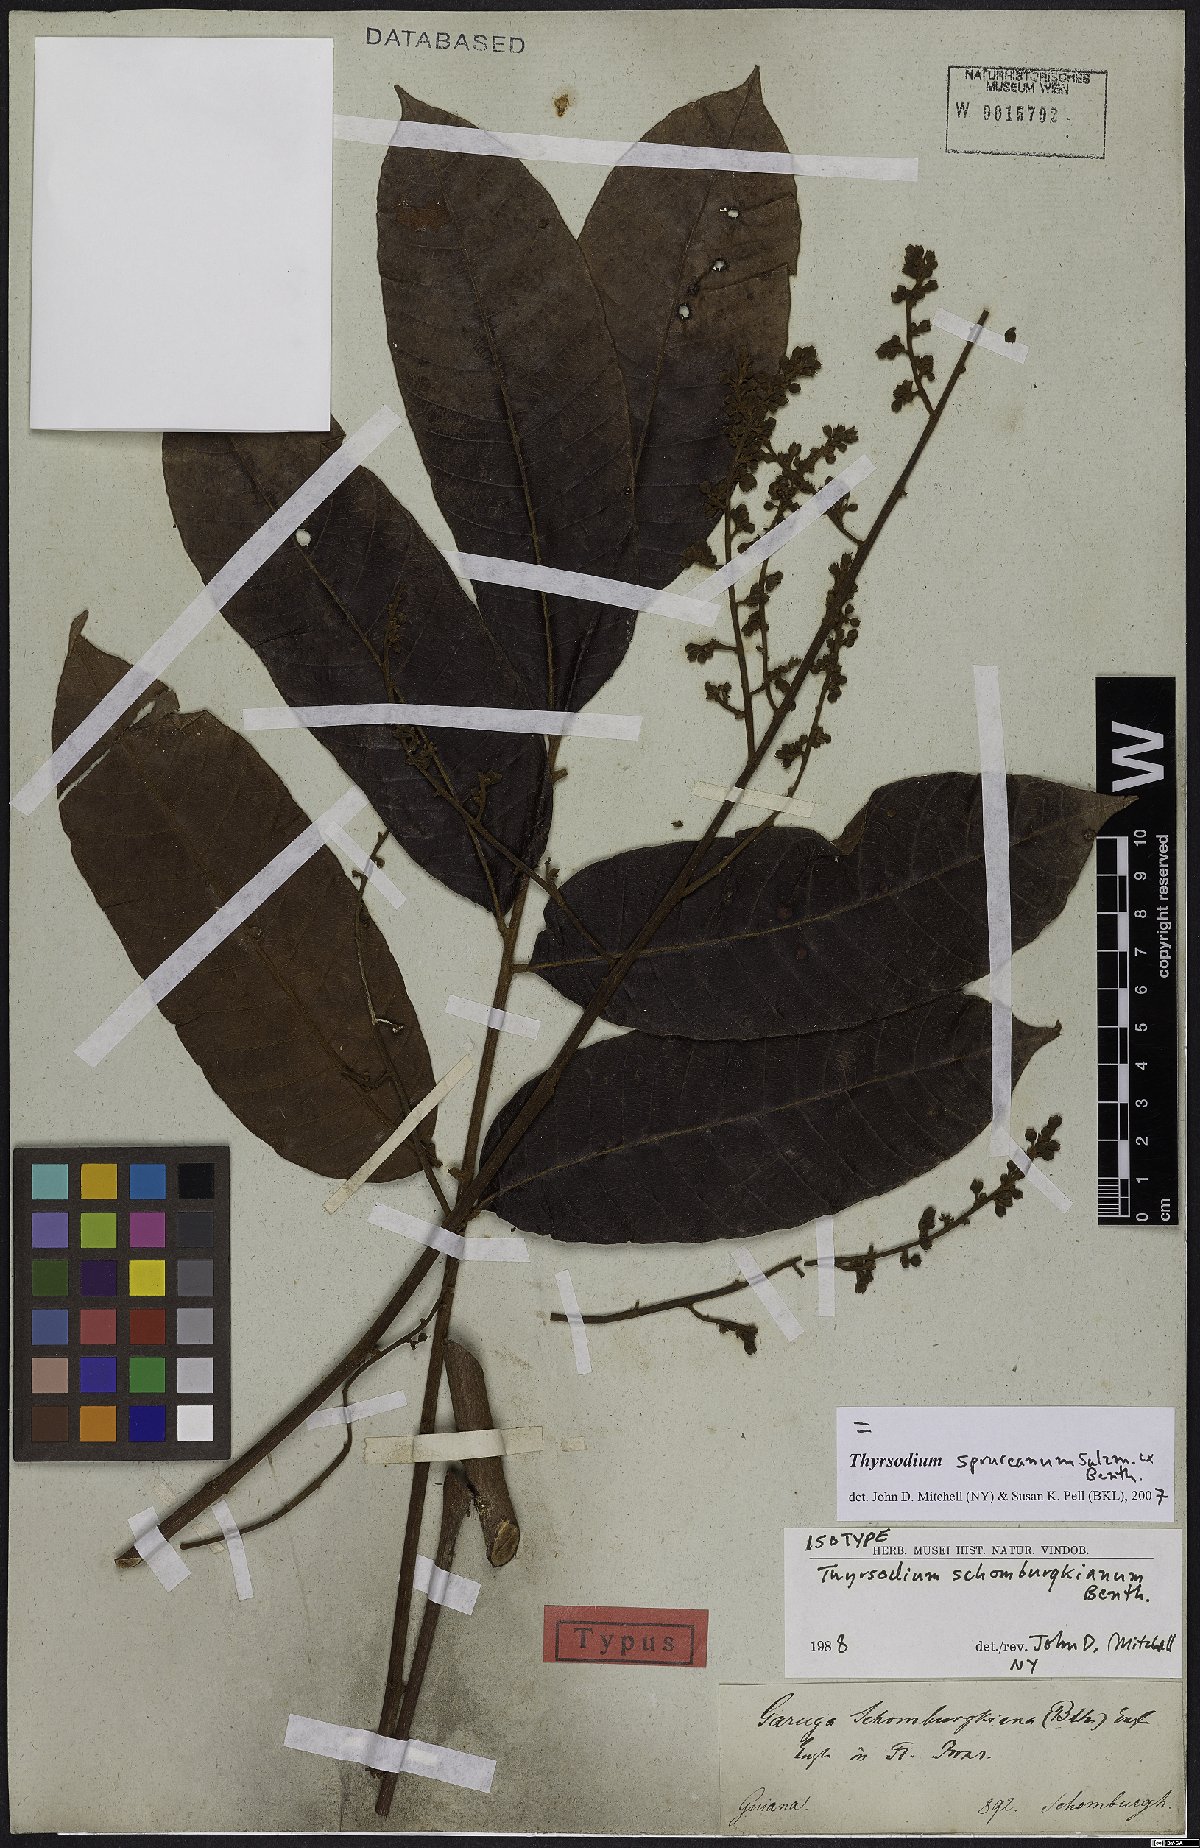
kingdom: Plantae
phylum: Tracheophyta
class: Magnoliopsida
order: Sapindales
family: Anacardiaceae
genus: Thyrsodium
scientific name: Thyrsodium spruceanum
